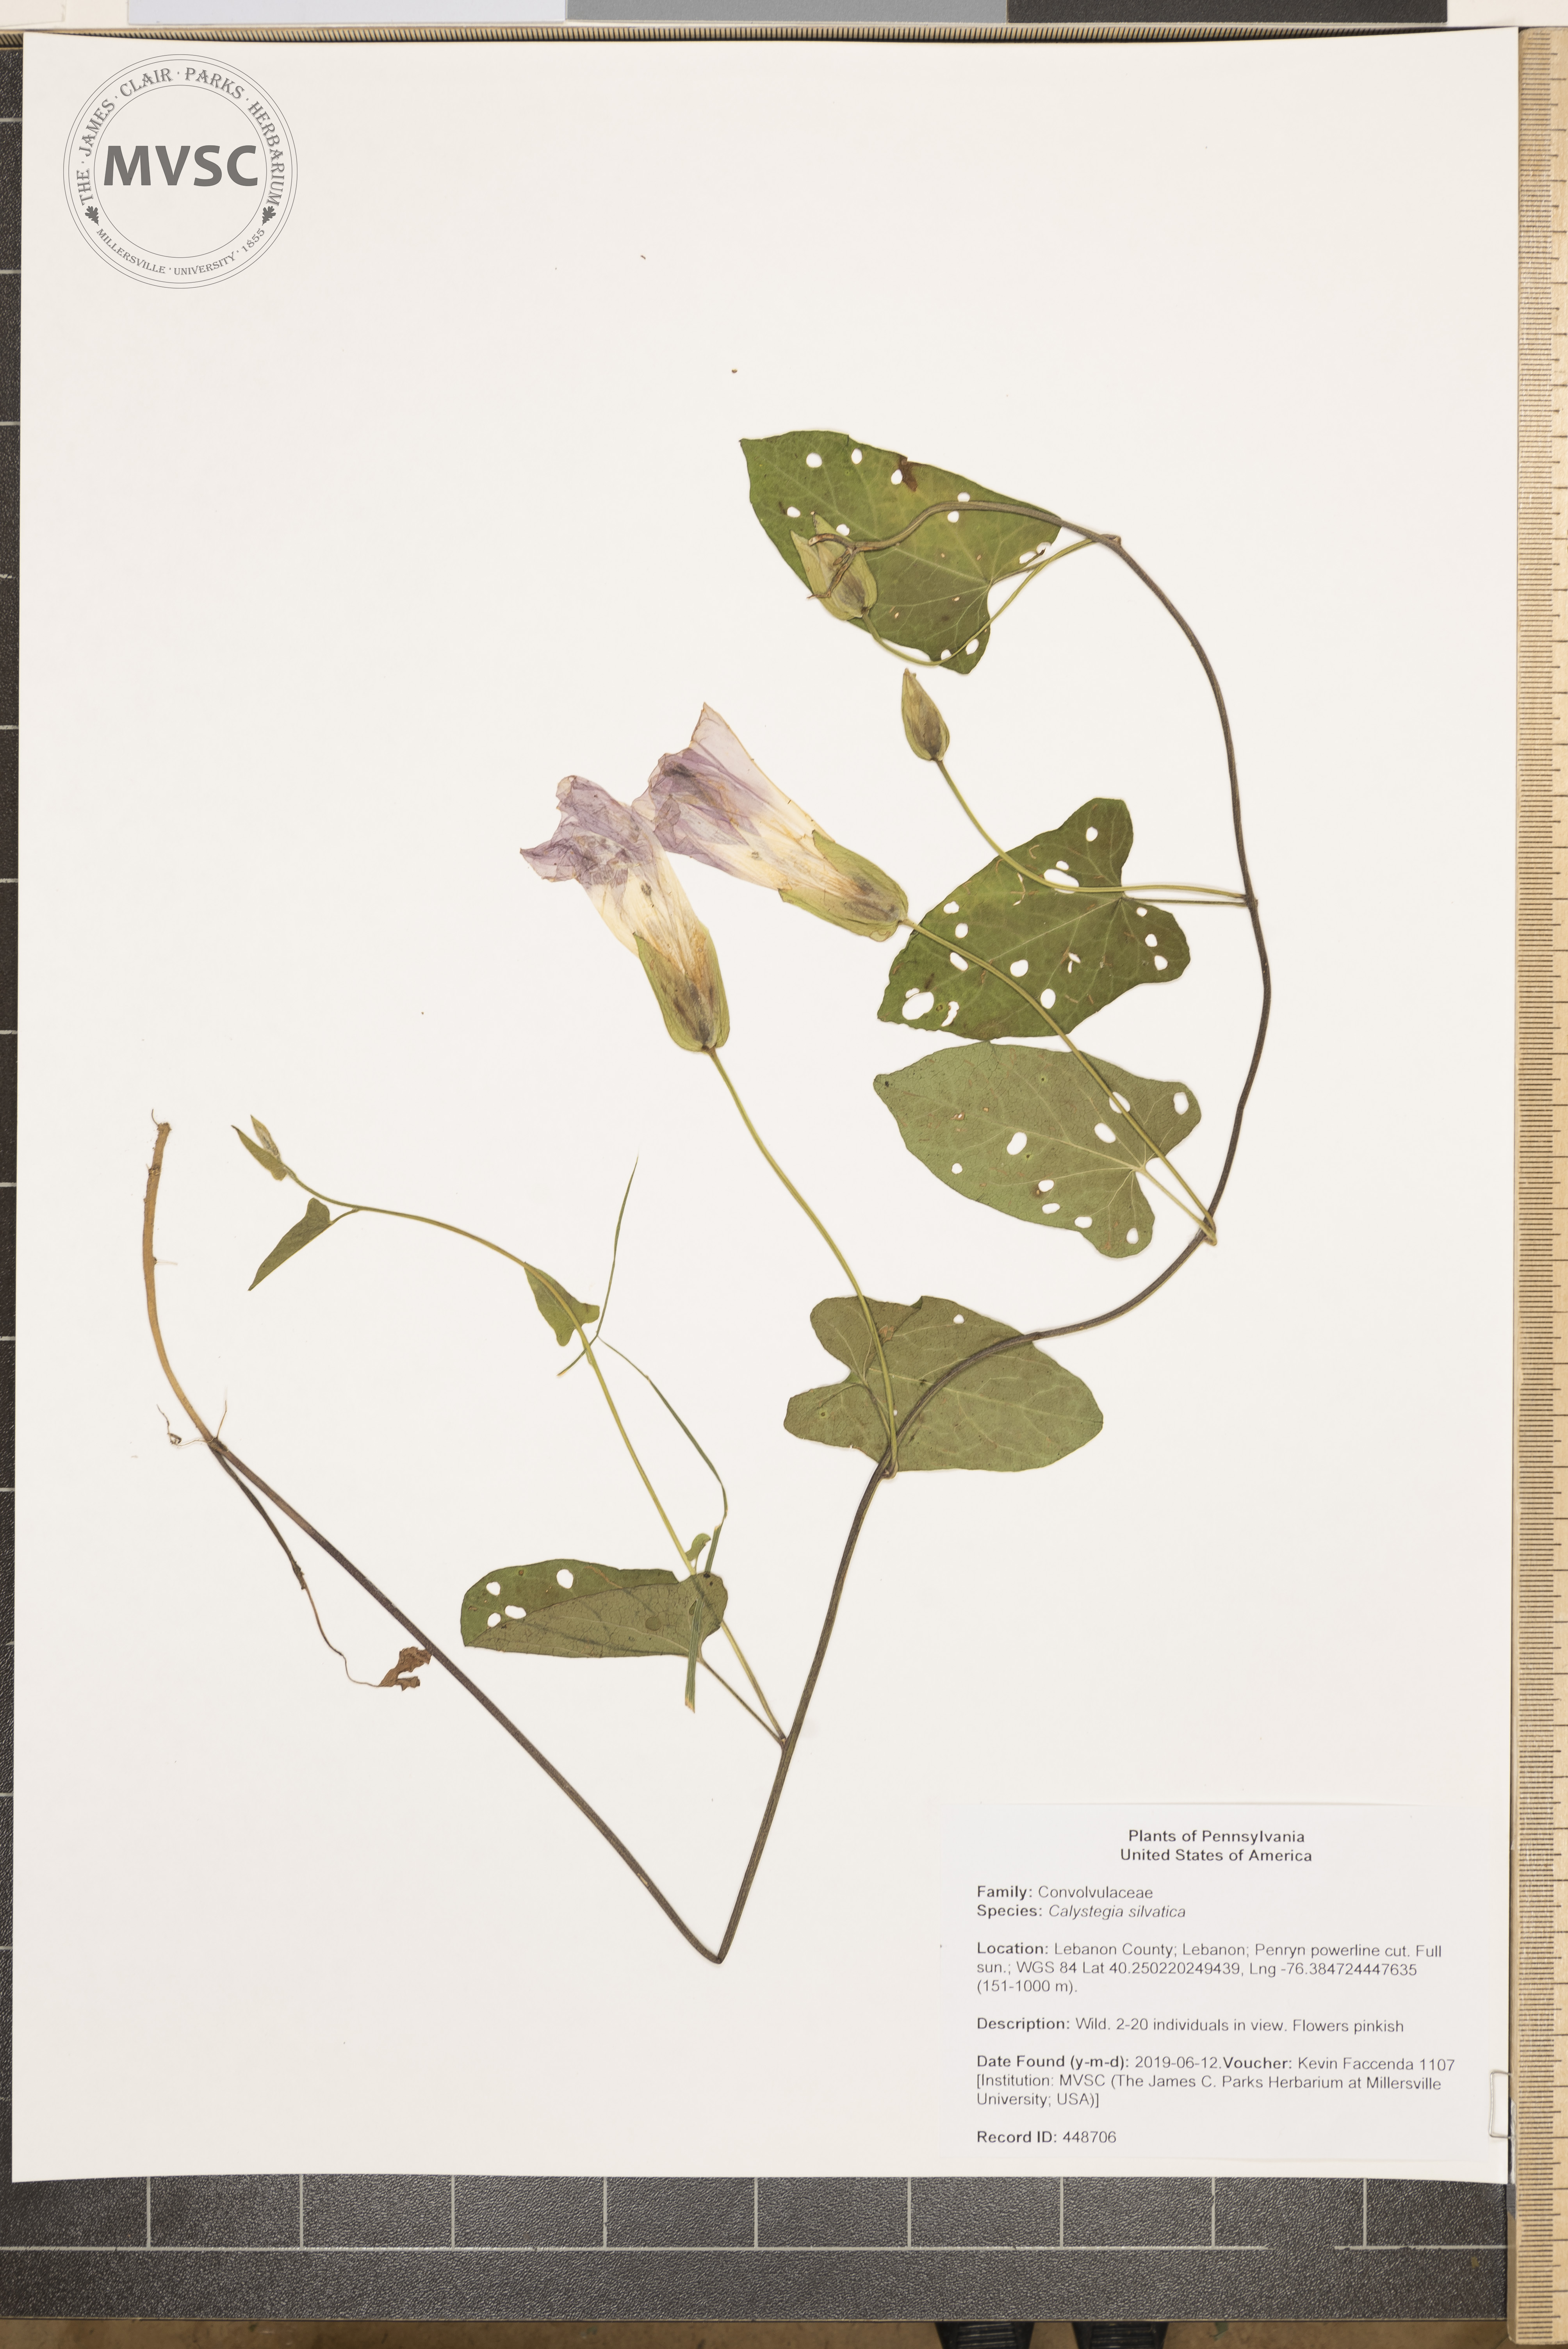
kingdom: Plantae
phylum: Tracheophyta
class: Magnoliopsida
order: Solanales
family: Convolvulaceae
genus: Calystegia
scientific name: Calystegia silvatica
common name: Large bindweed
